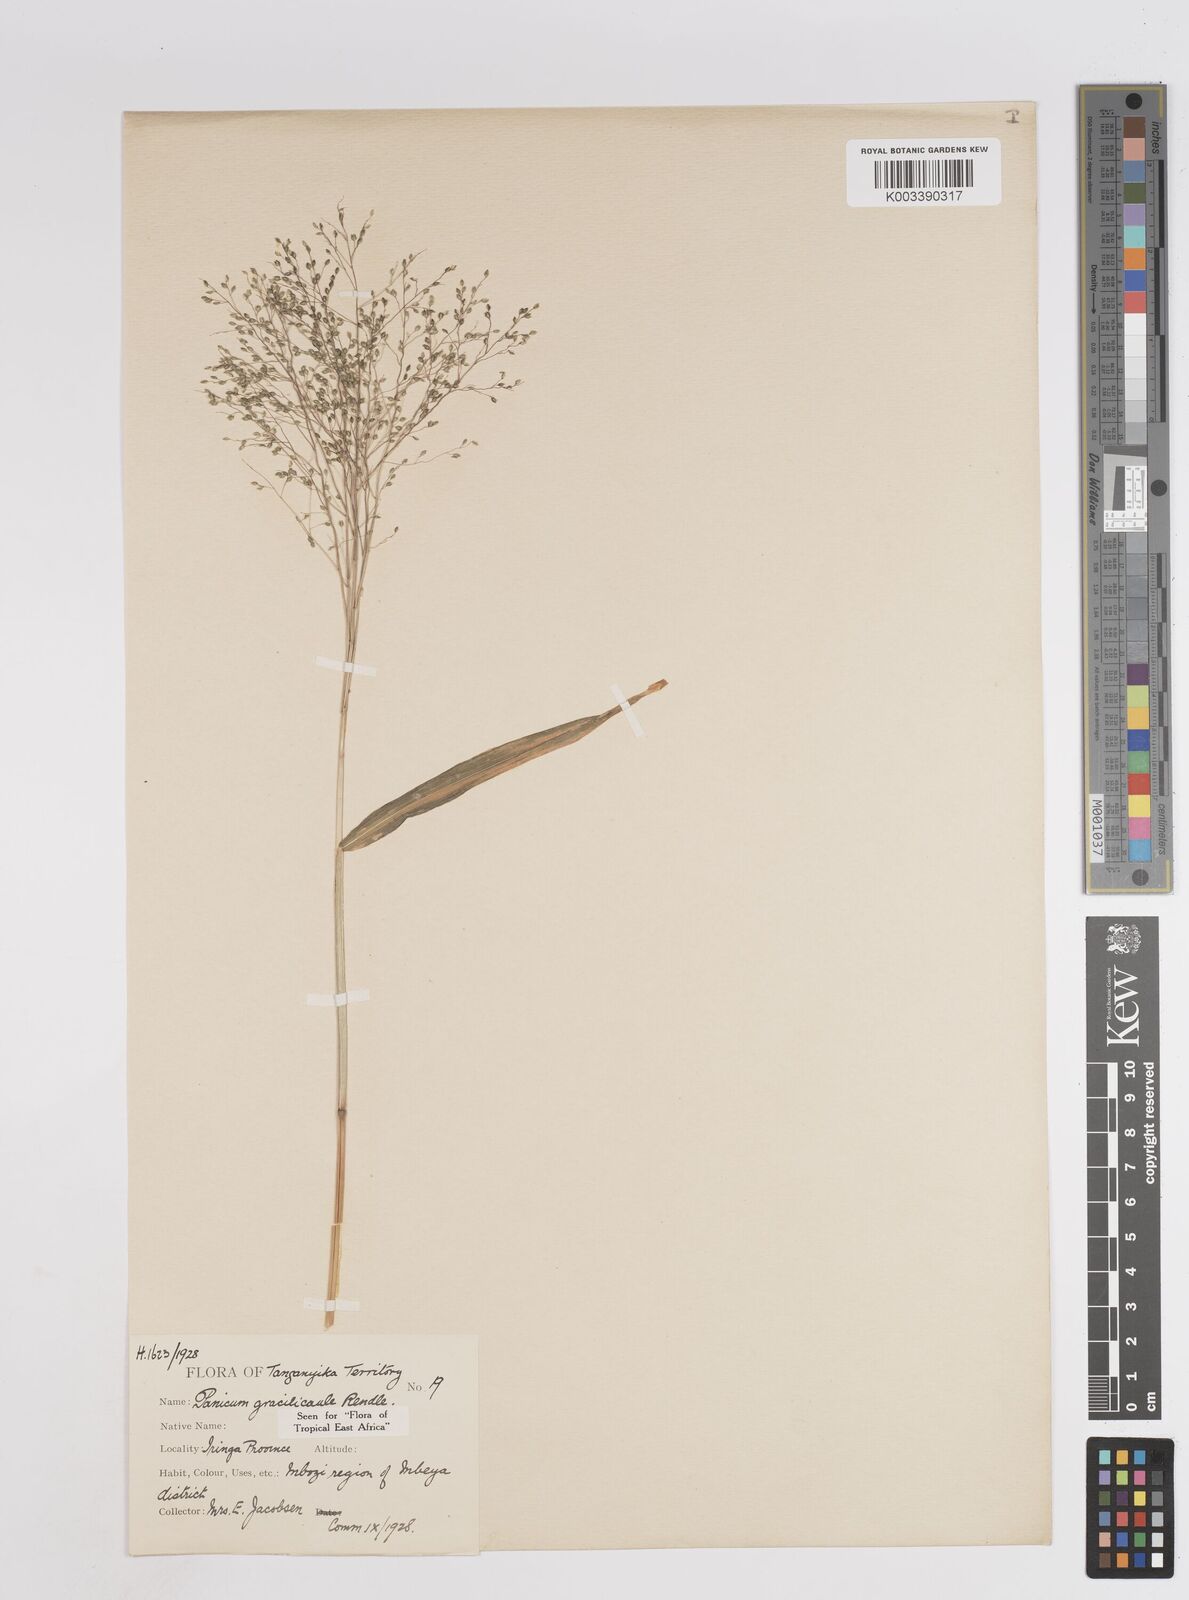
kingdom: Plantae
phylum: Tracheophyta
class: Liliopsida
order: Poales
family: Poaceae
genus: Trichanthecium
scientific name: Trichanthecium gracilicaule
